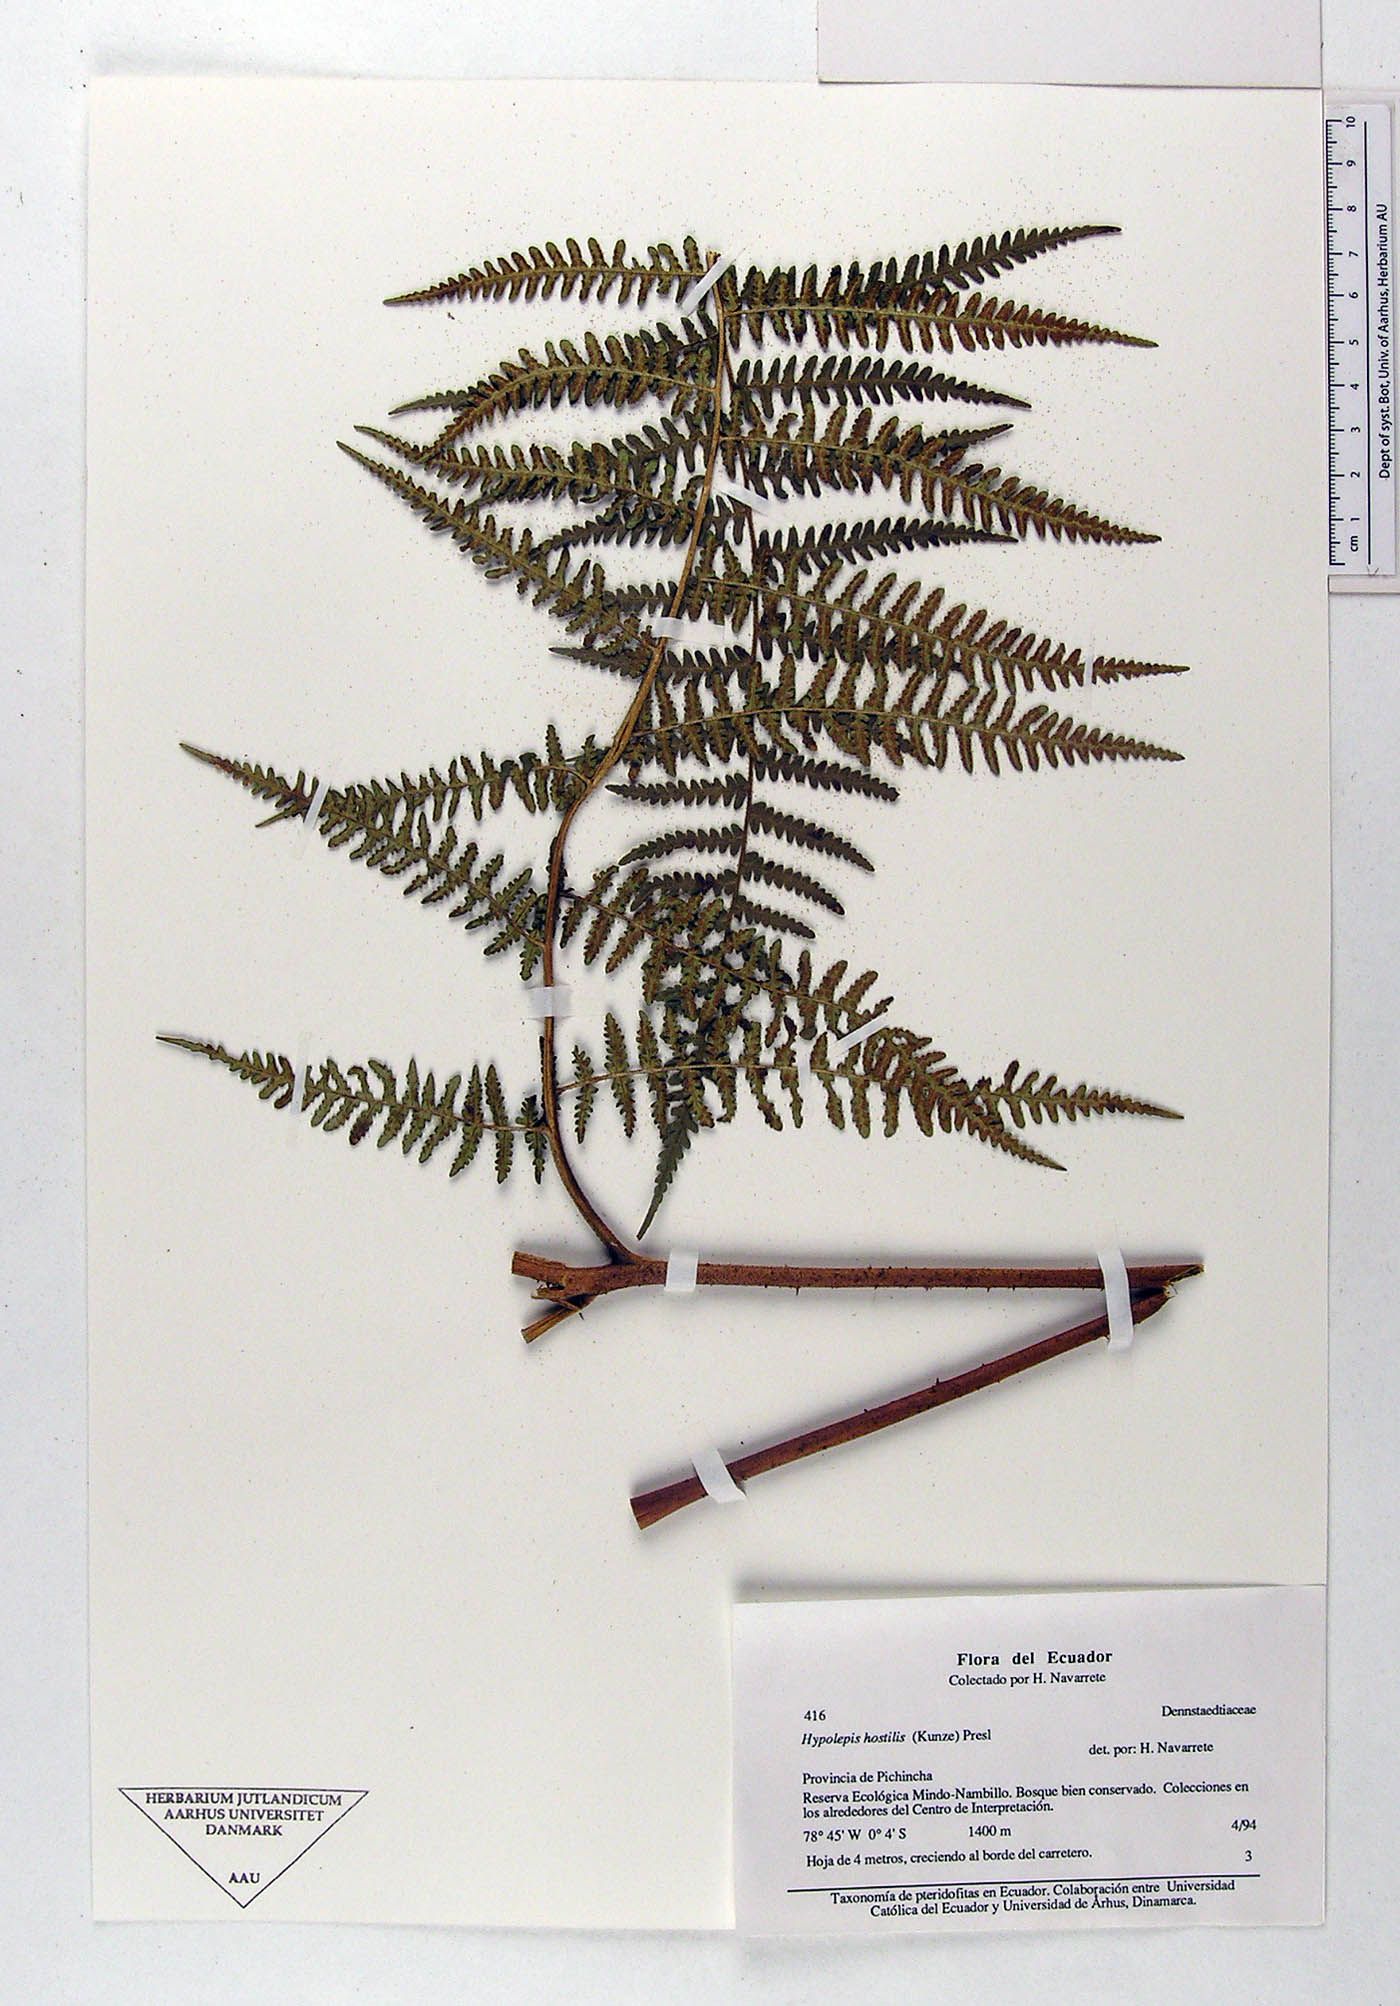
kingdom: Plantae
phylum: Tracheophyta
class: Polypodiopsida
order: Polypodiales
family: Dennstaedtiaceae
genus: Hypolepis
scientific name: Hypolepis hostilis
